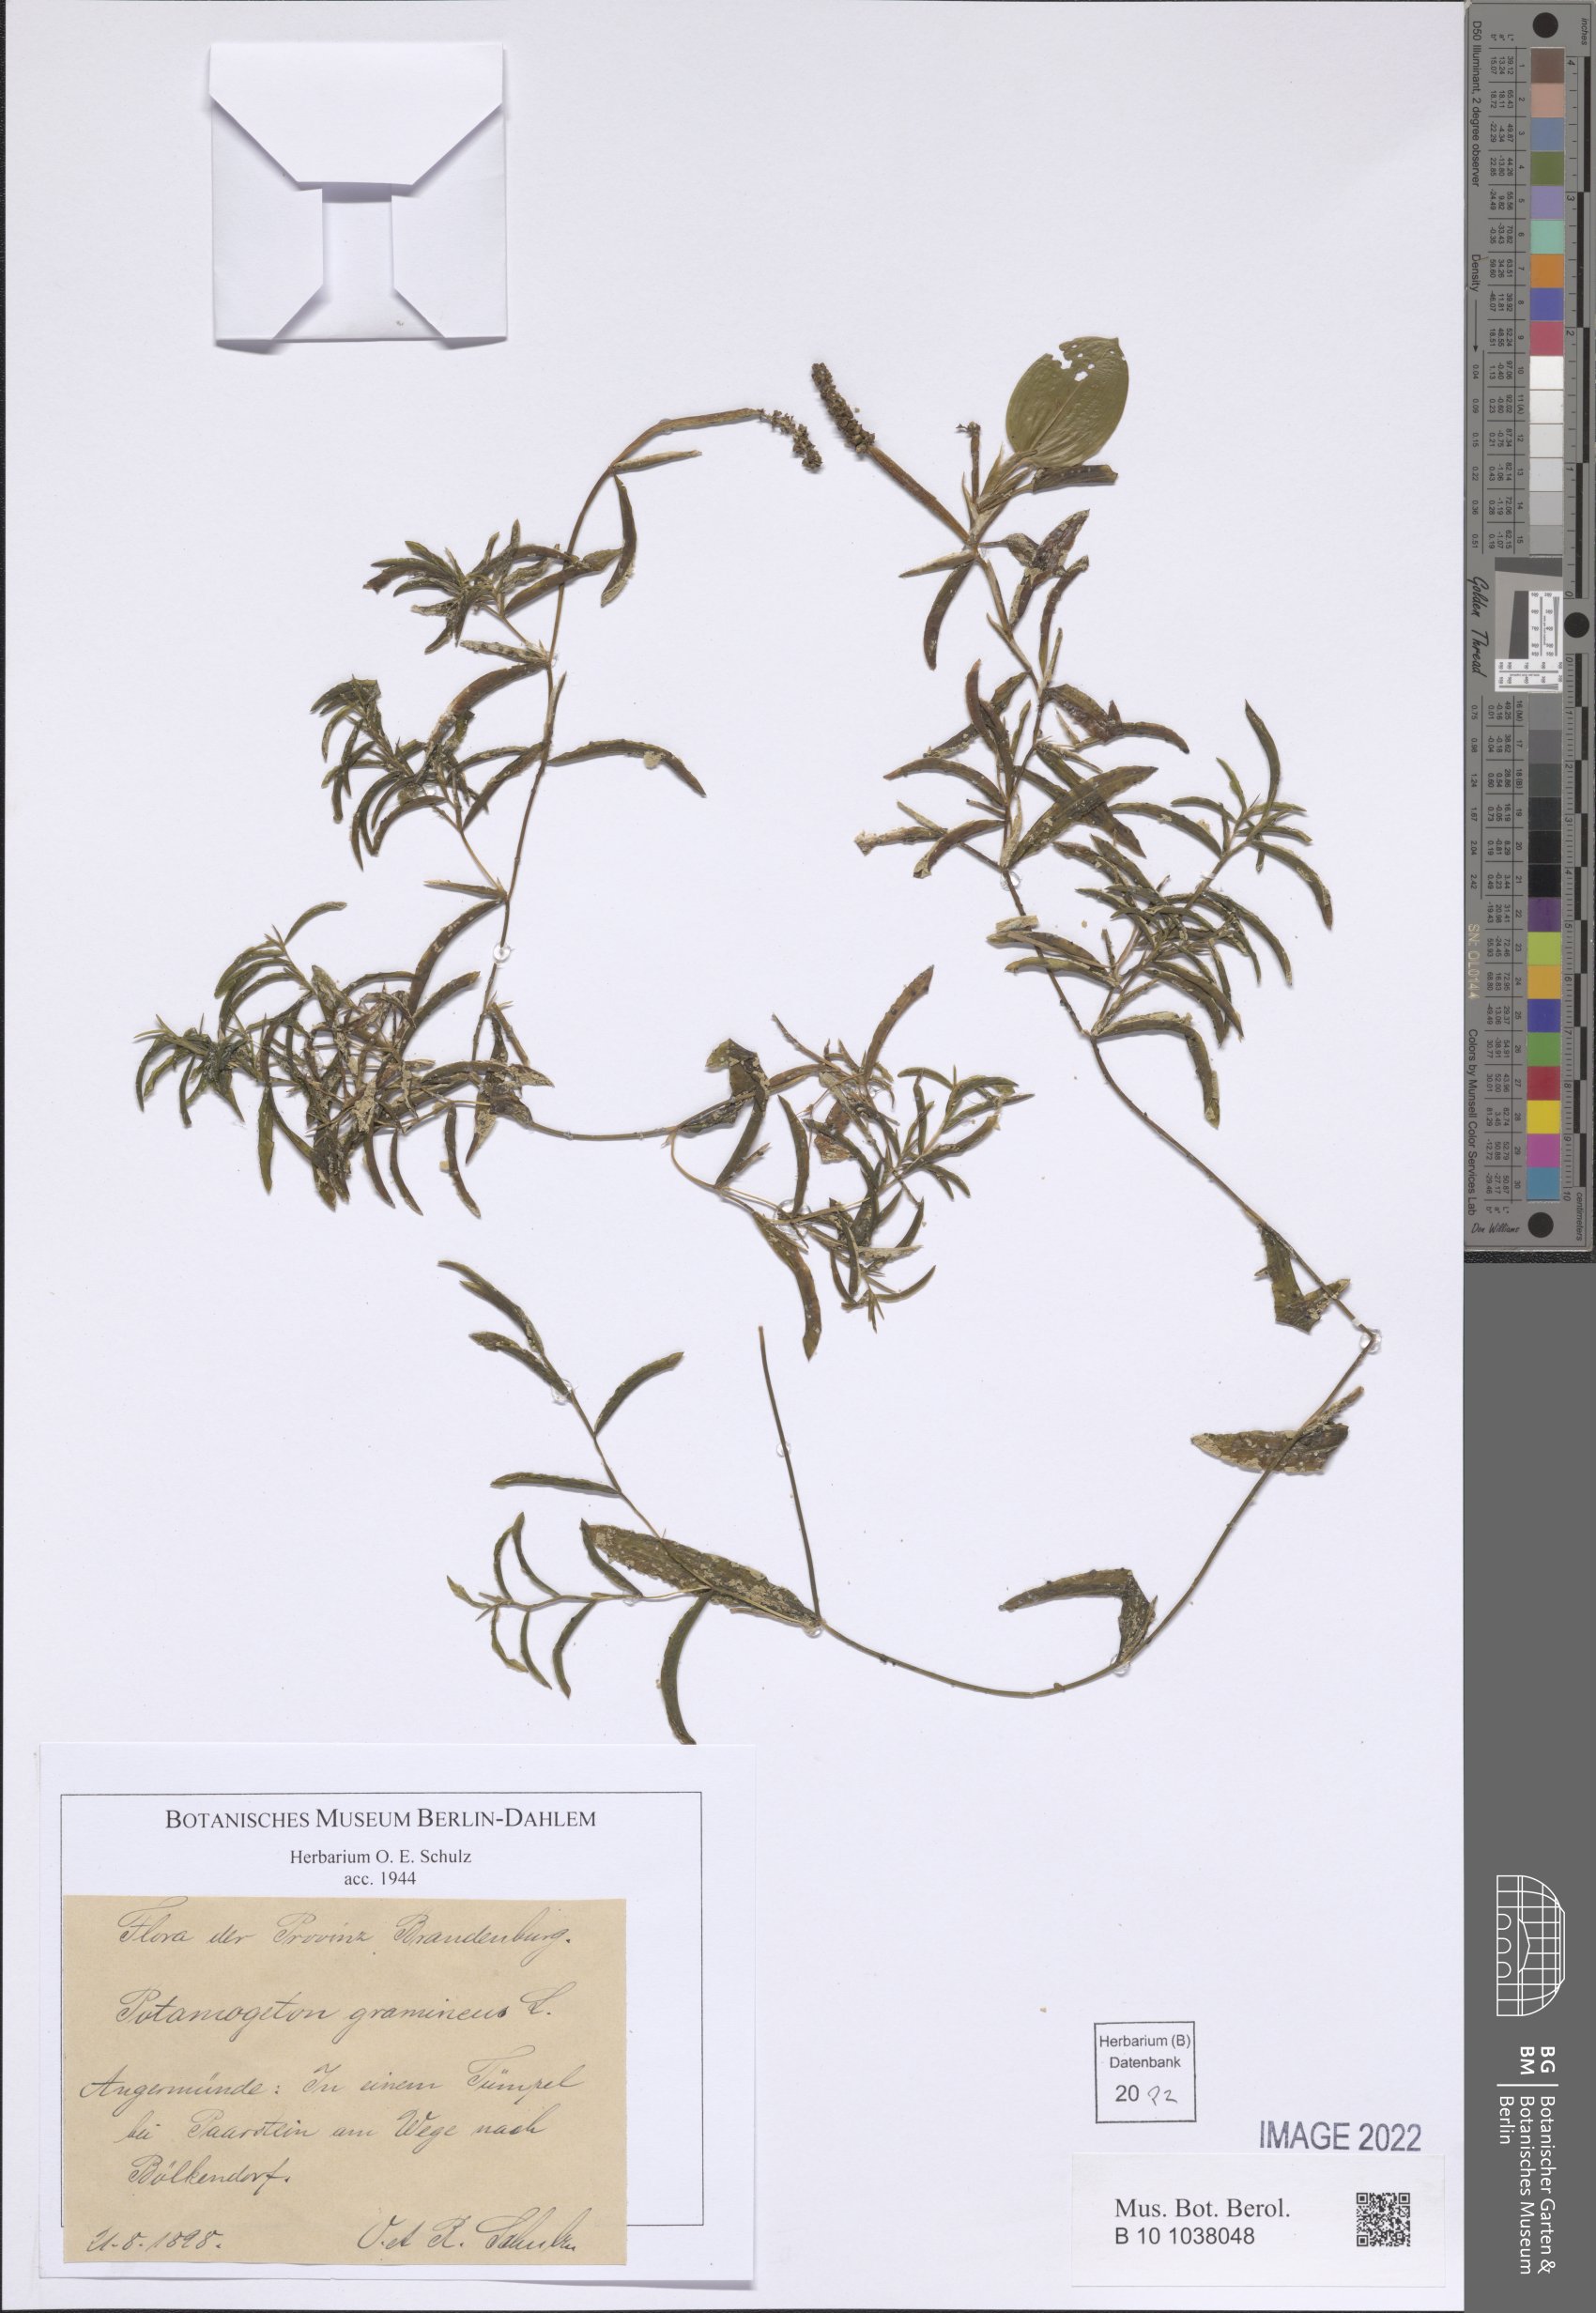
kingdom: Plantae
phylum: Tracheophyta
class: Liliopsida
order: Alismatales
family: Potamogetonaceae
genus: Potamogeton
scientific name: Potamogeton gramineus
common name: Various-leaved pondweed
